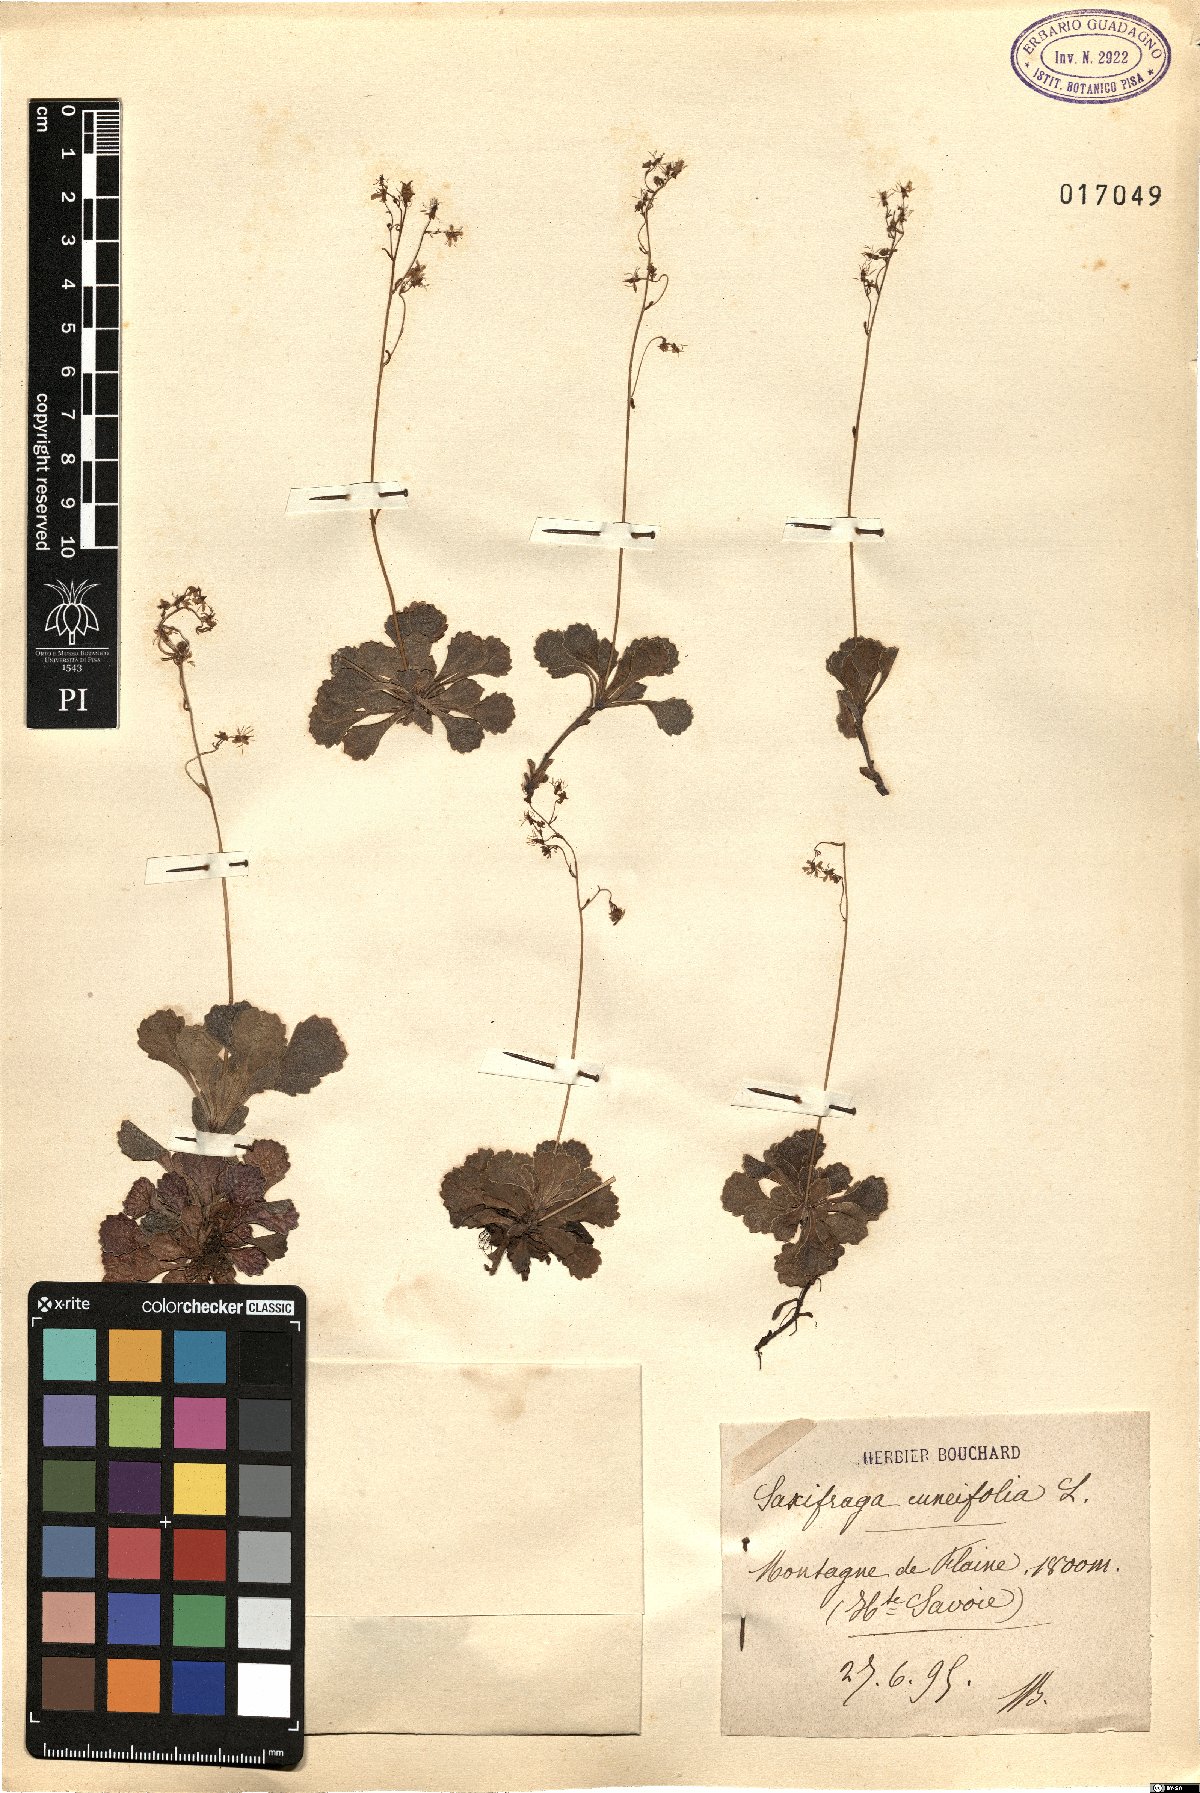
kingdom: Plantae
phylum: Tracheophyta
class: Magnoliopsida
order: Saxifragales
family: Saxifragaceae
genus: Saxifraga
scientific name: Saxifraga cuneifolia
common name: Lesser londonpride
